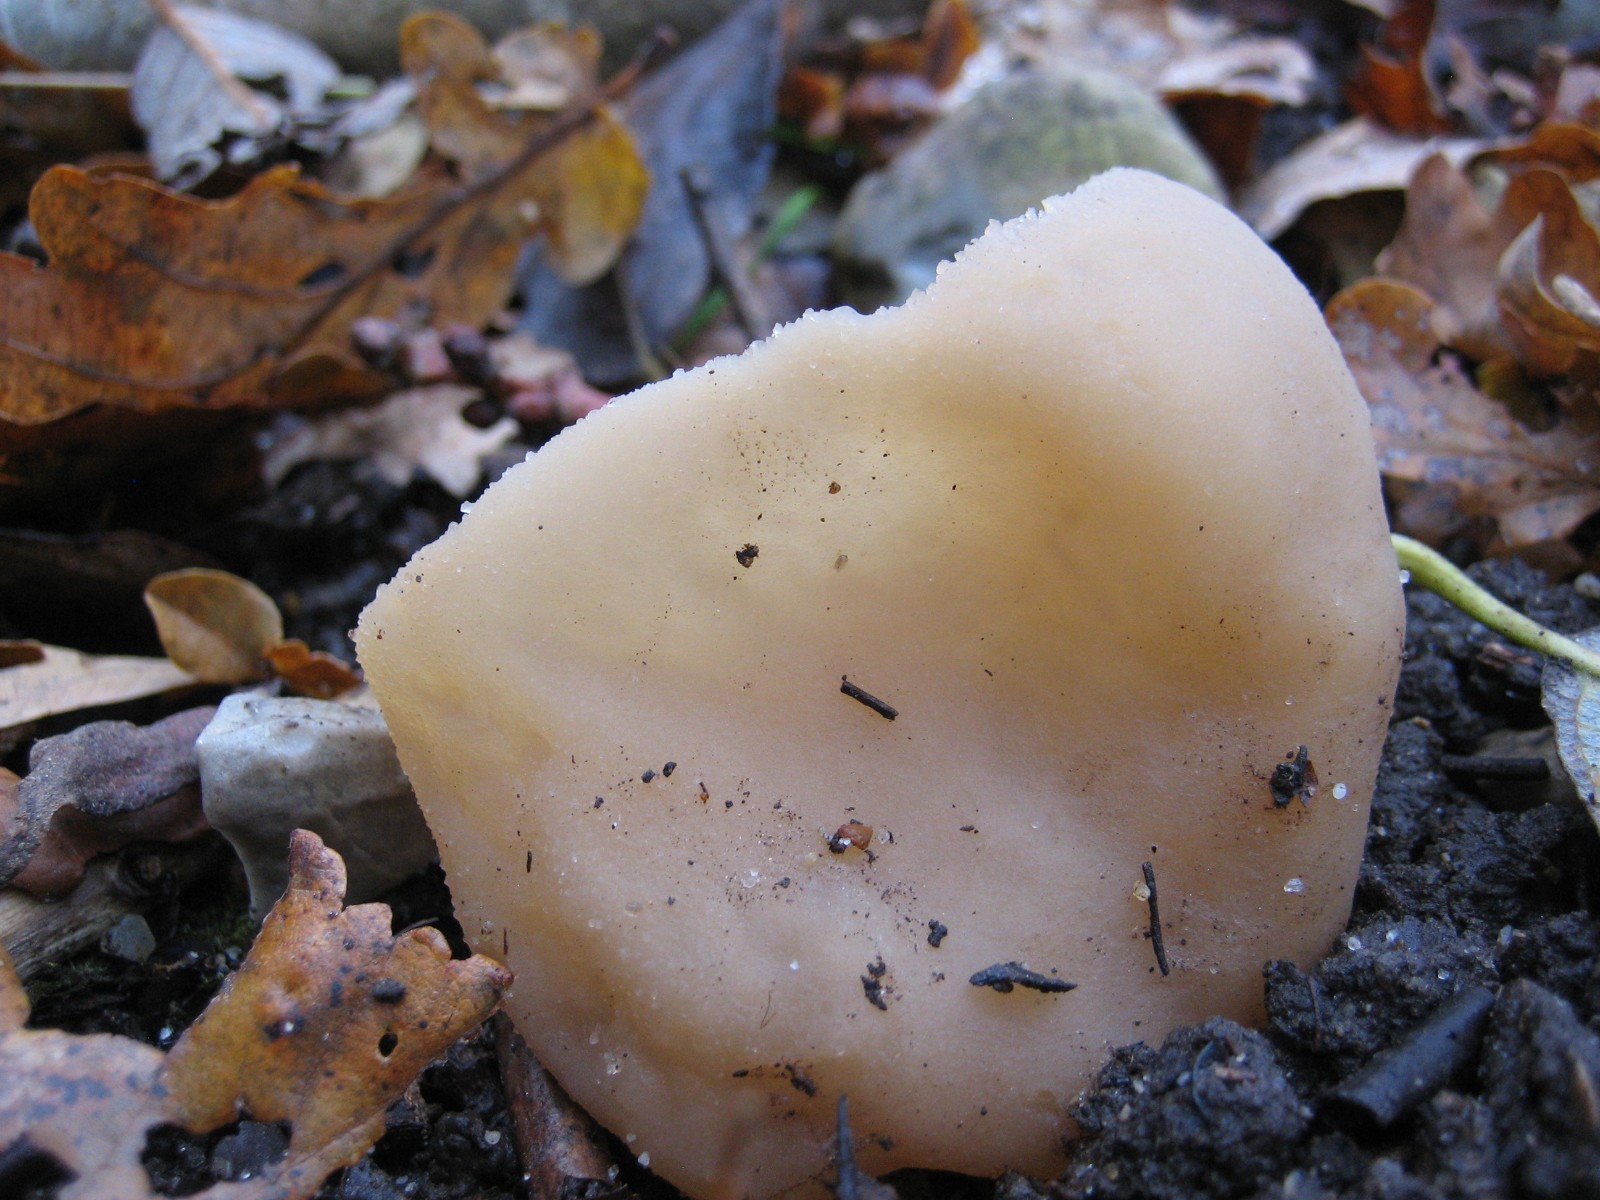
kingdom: Fungi
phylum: Ascomycota
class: Pezizomycetes
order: Pezizales
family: Pezizaceae
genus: Peziza
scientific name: Peziza
